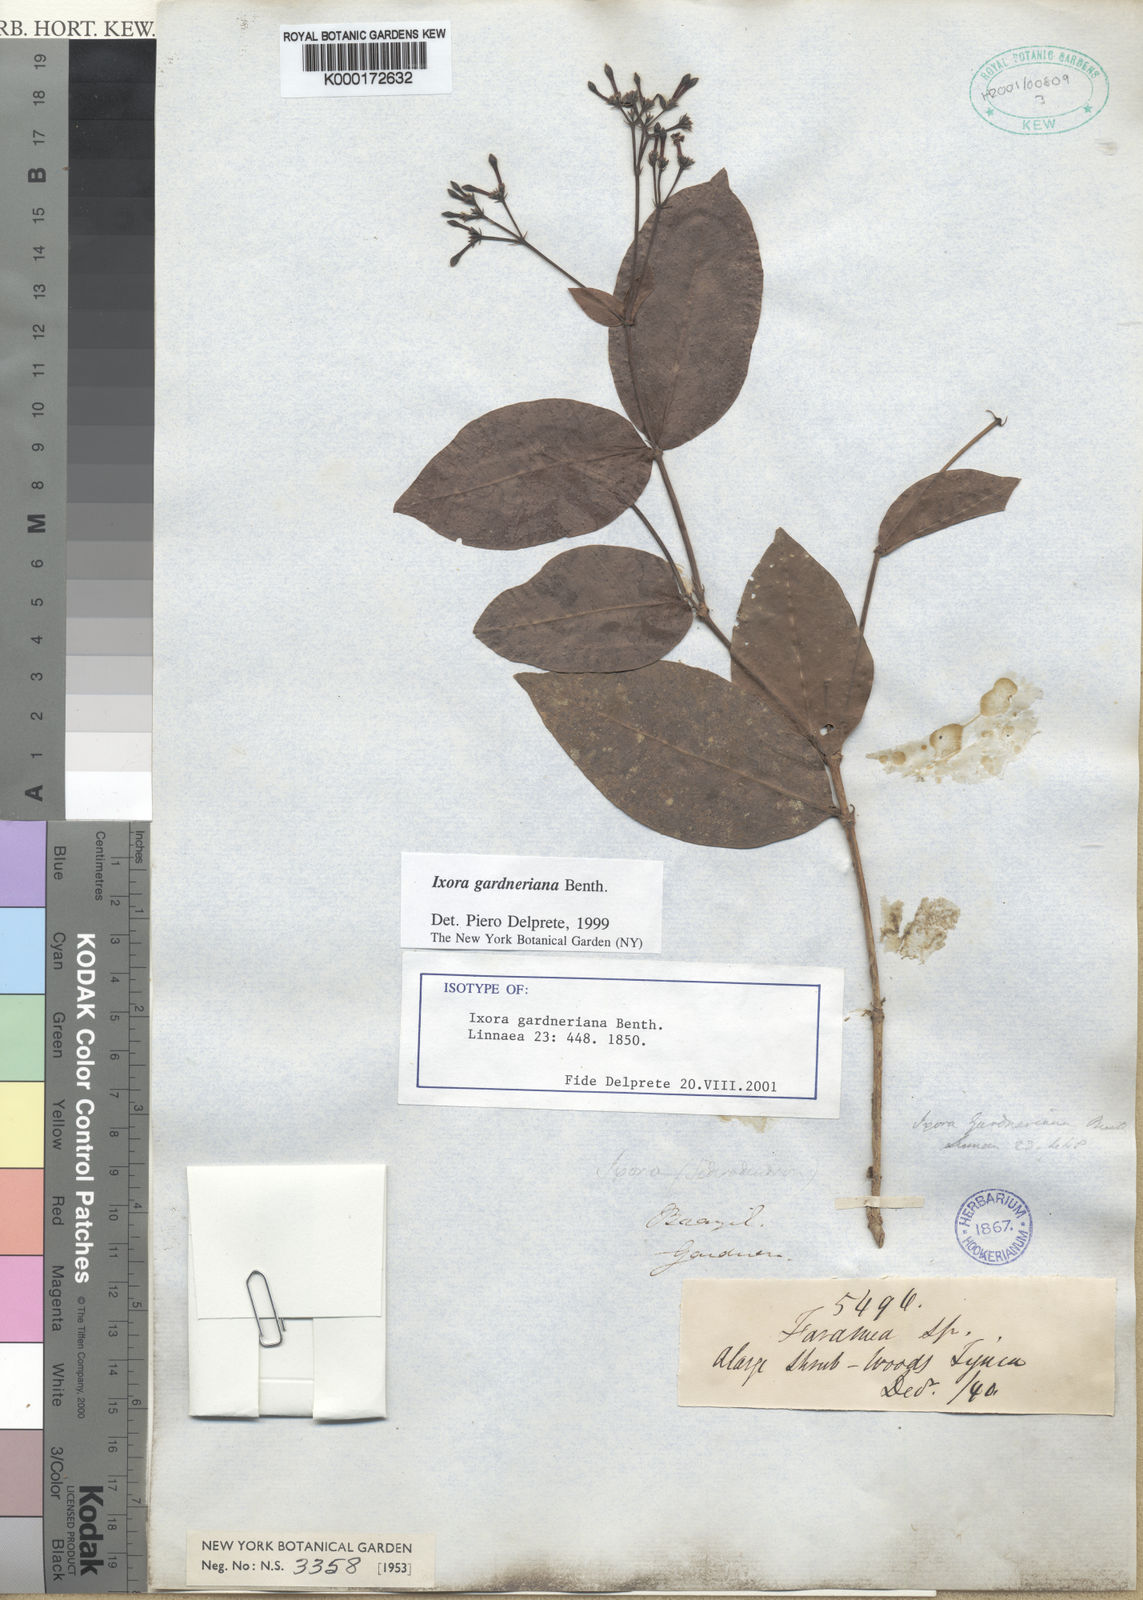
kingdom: Plantae
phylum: Tracheophyta
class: Magnoliopsida
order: Gentianales
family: Rubiaceae
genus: Ixora
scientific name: Ixora gardneriana
